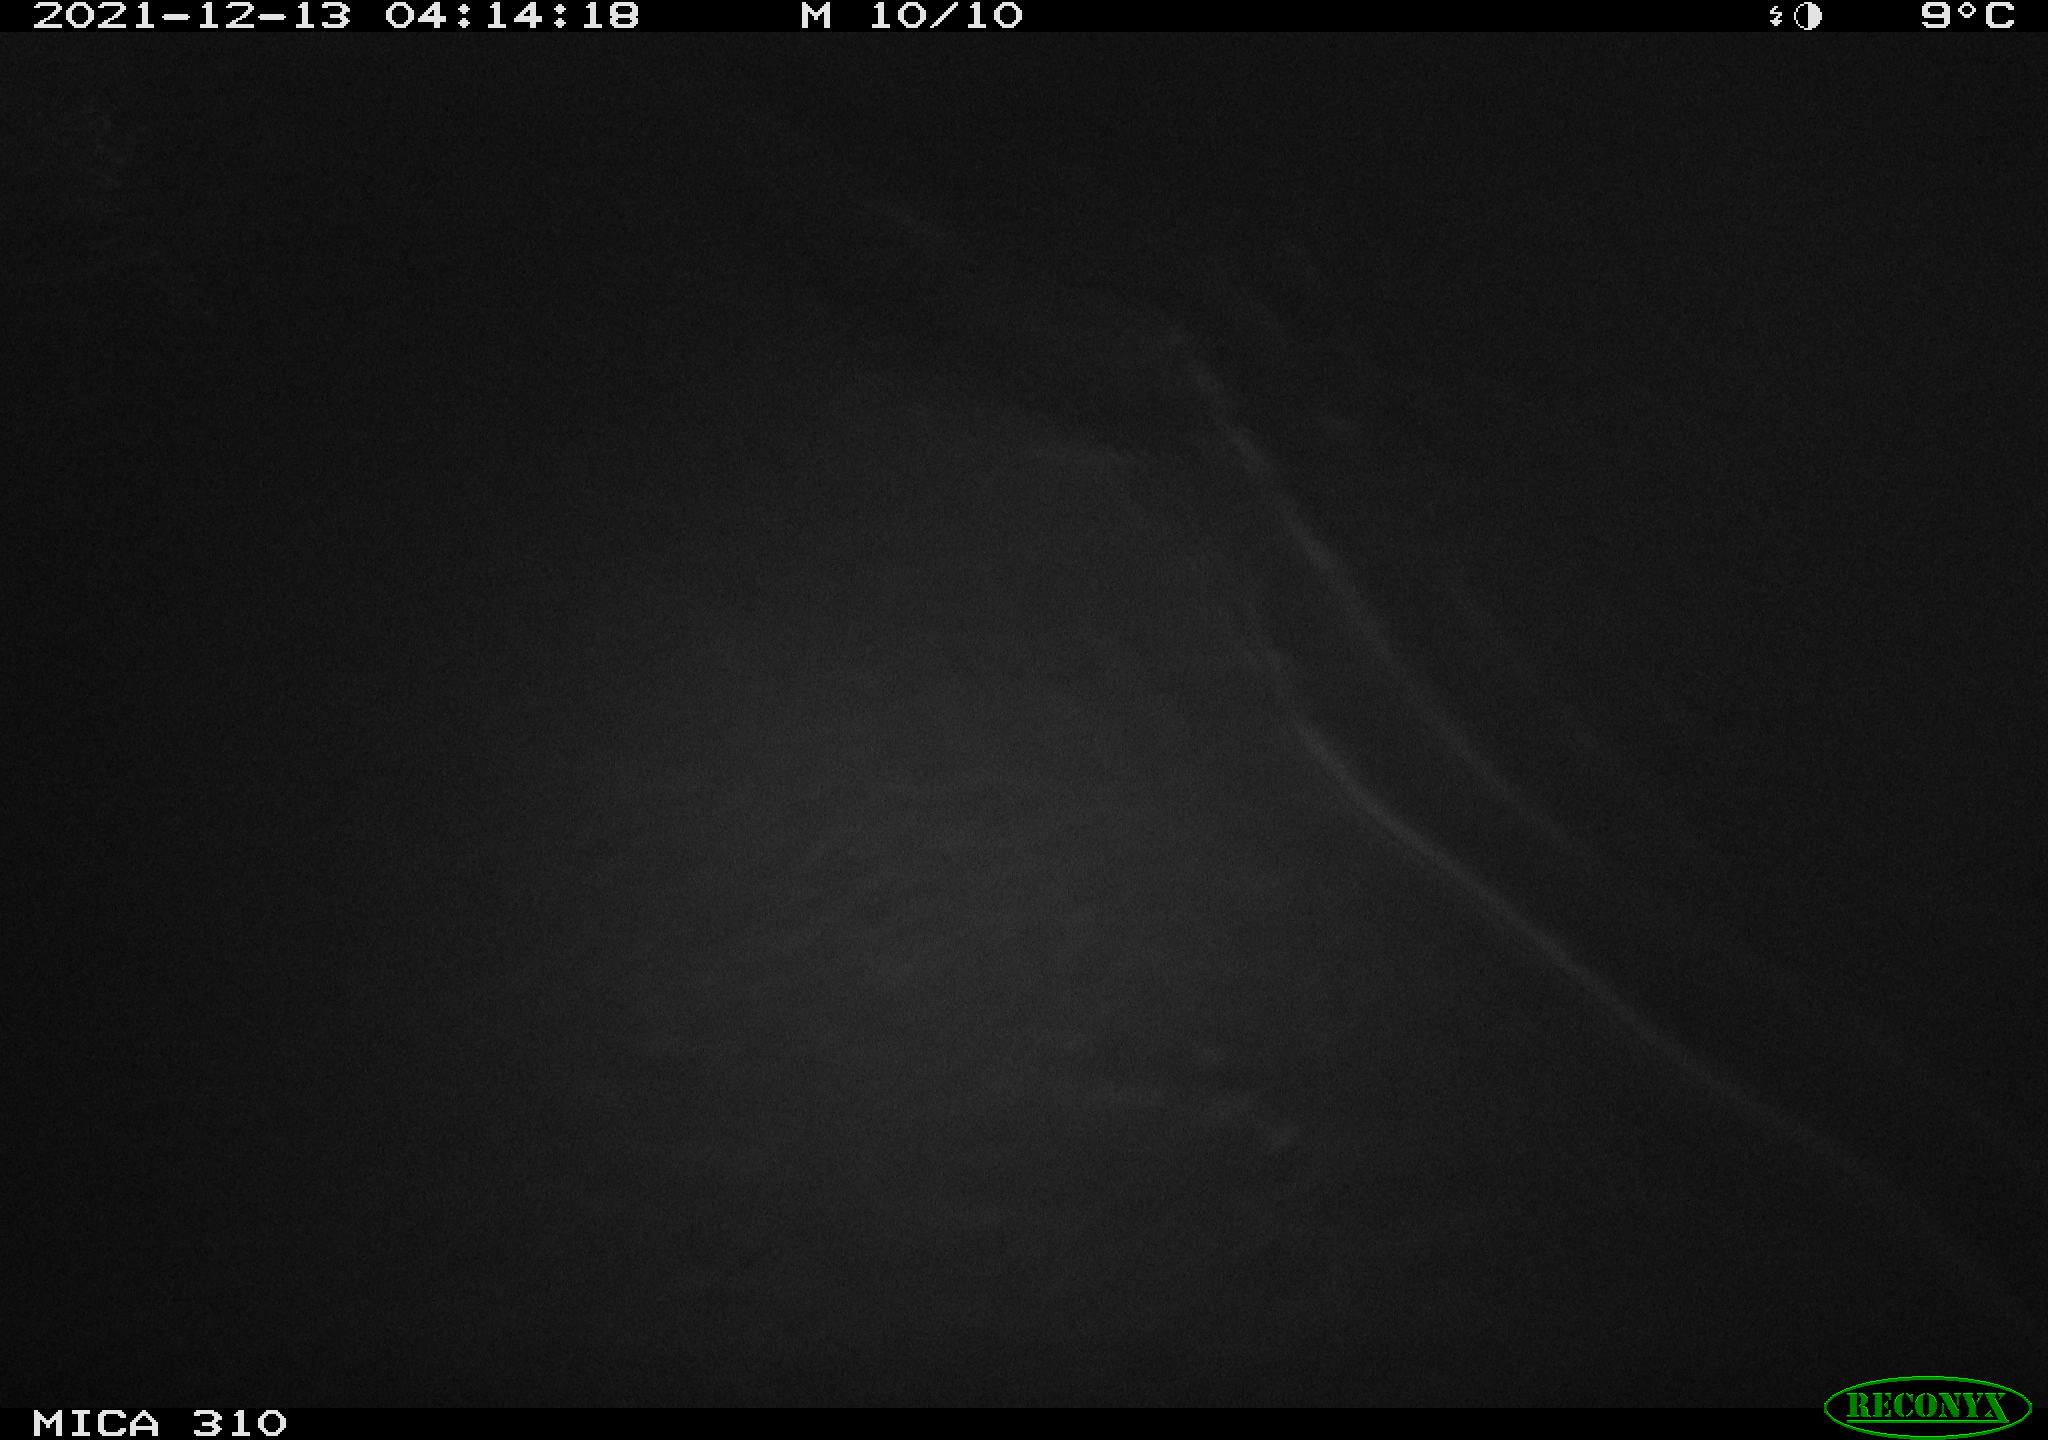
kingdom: Animalia
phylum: Chordata
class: Mammalia
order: Rodentia
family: Cricetidae
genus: Ondatra
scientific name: Ondatra zibethicus
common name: Muskrat
